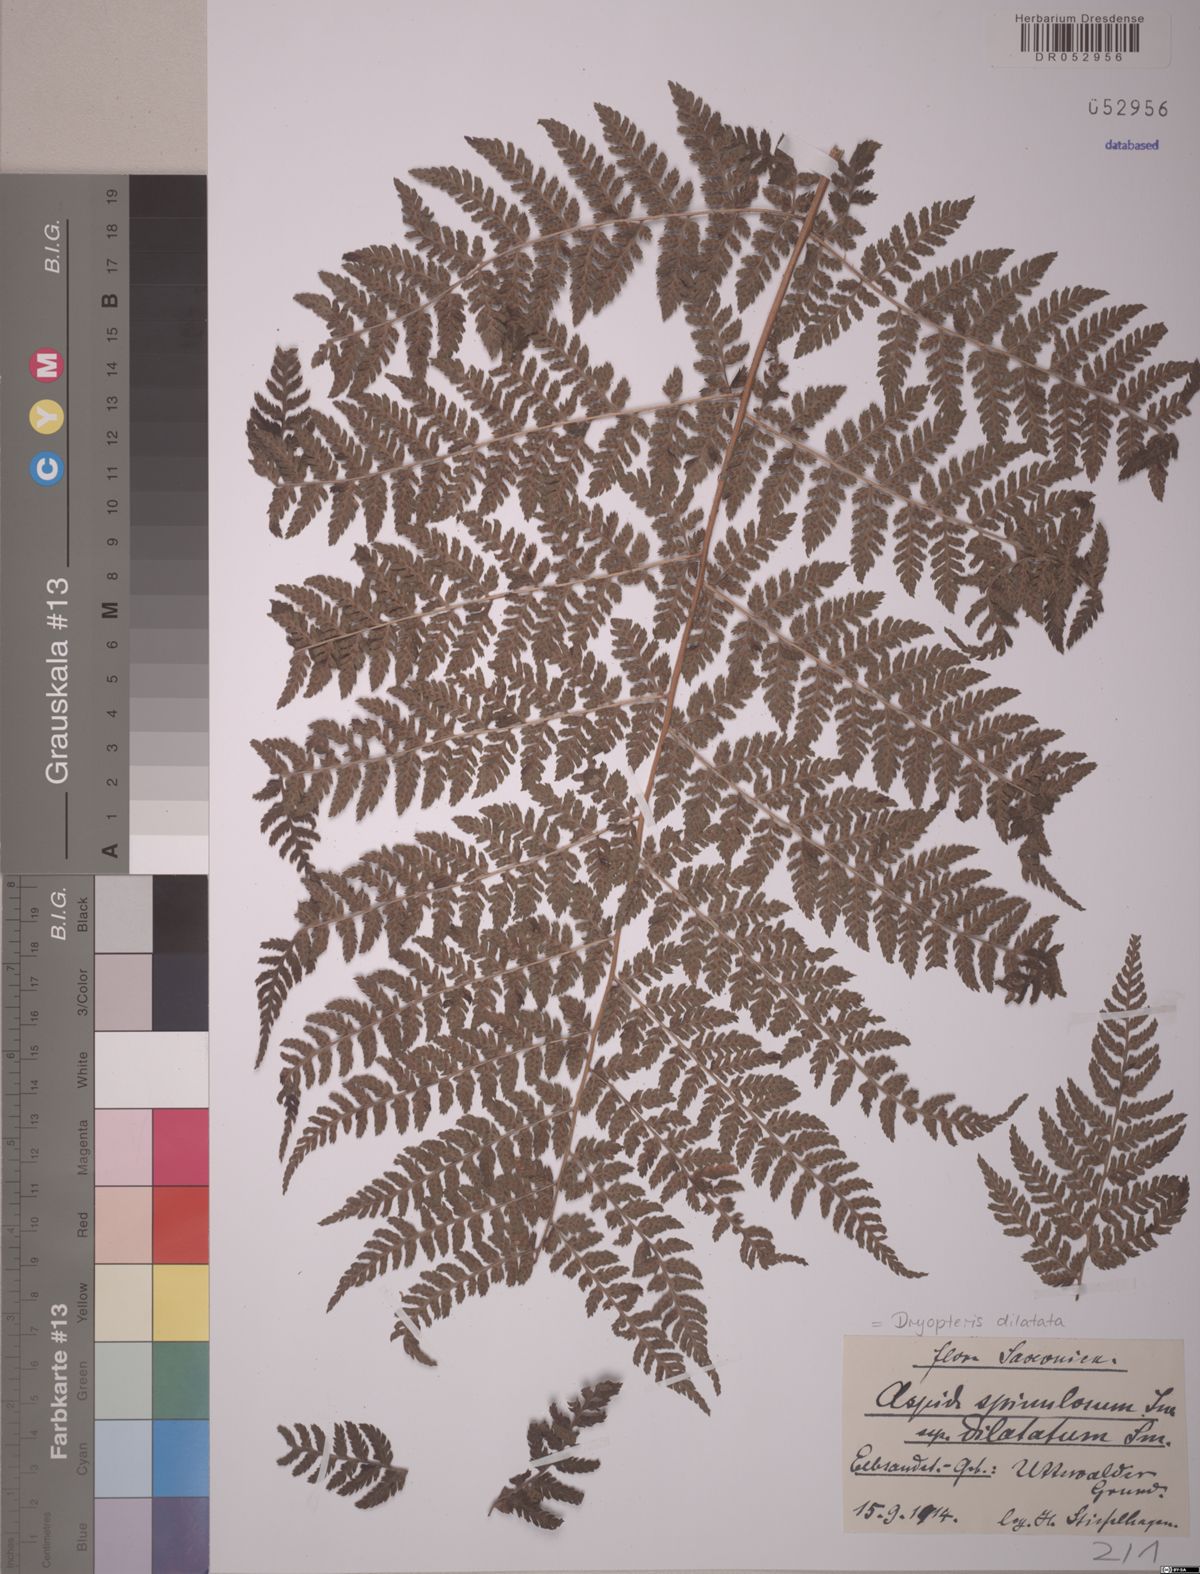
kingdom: Plantae
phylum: Tracheophyta
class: Polypodiopsida
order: Polypodiales
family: Dryopteridaceae
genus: Dryopteris
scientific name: Dryopteris dilatata
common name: Broad buckler-fern
